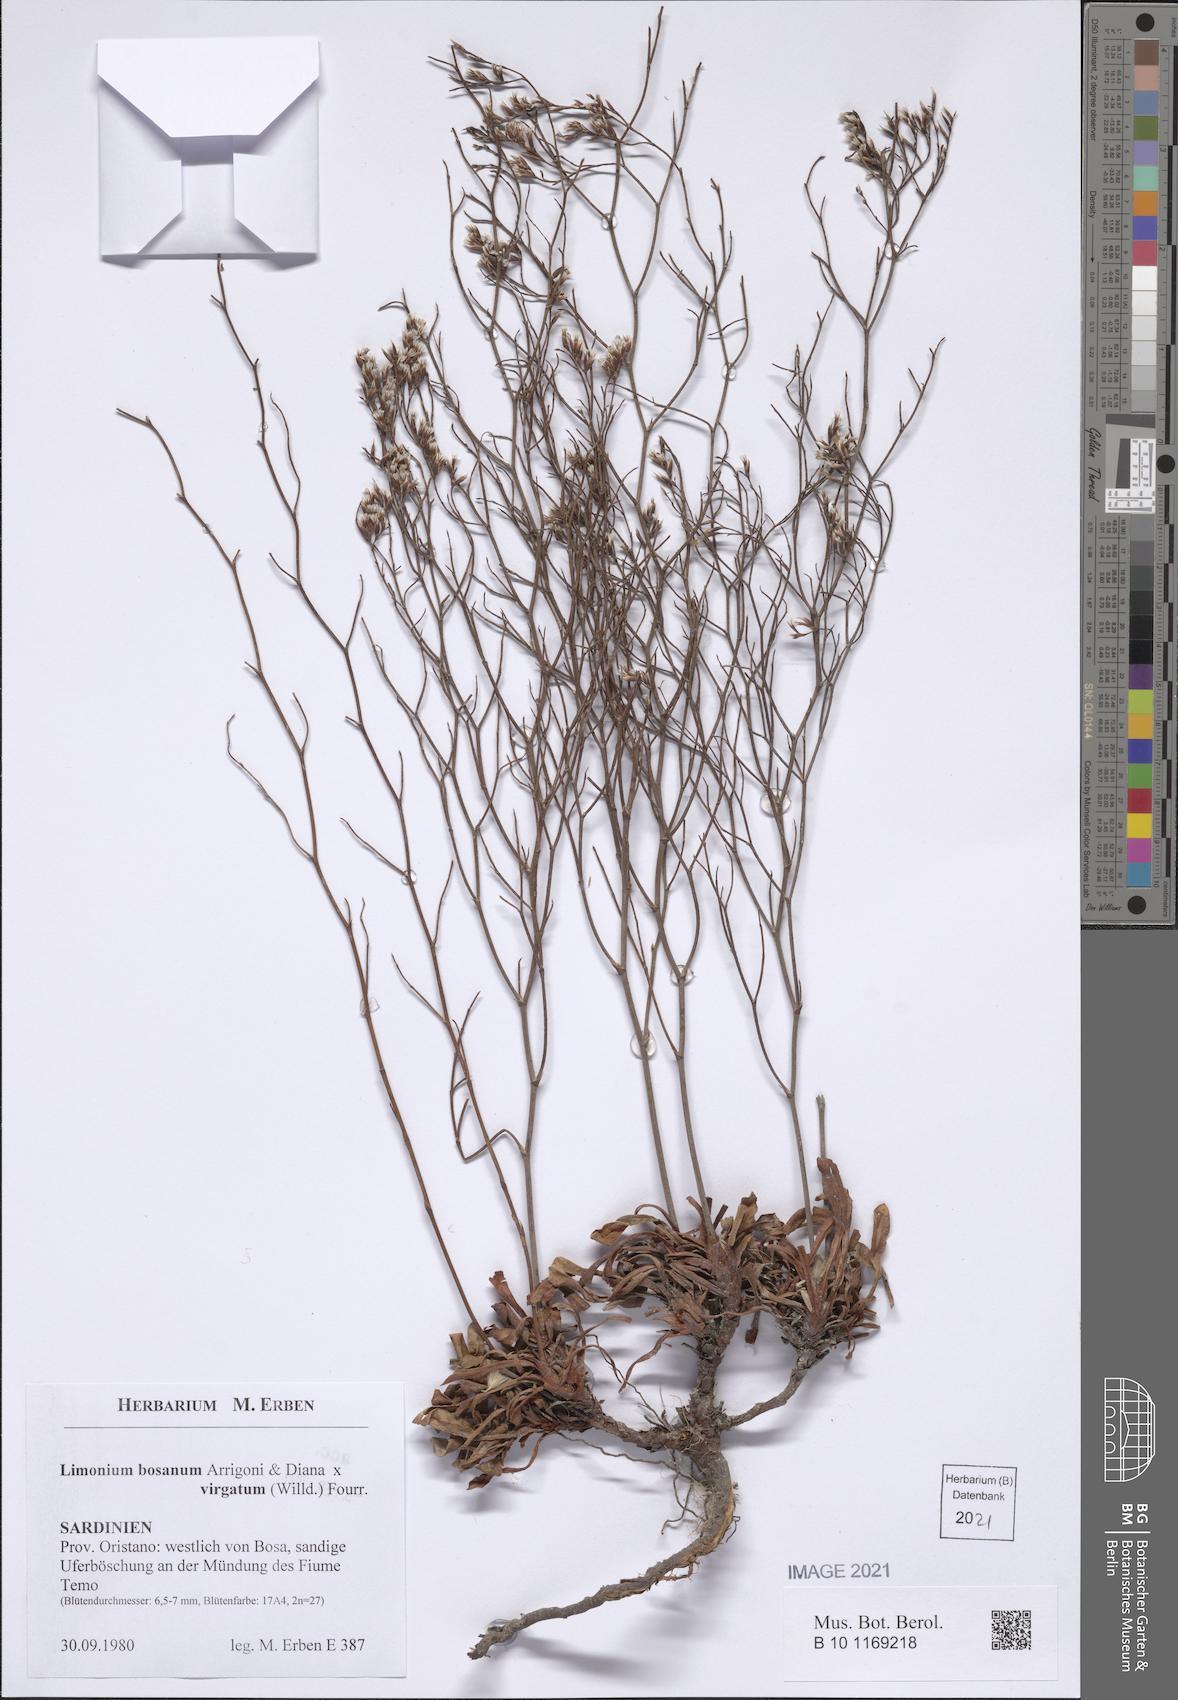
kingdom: Plantae
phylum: Tracheophyta
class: Magnoliopsida
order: Caryophyllales
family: Plumbaginaceae
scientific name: Plumbaginaceae
